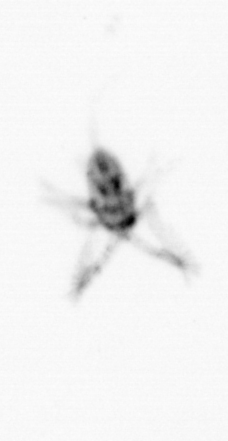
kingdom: Animalia
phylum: Arthropoda
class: Copepoda
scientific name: Copepoda
